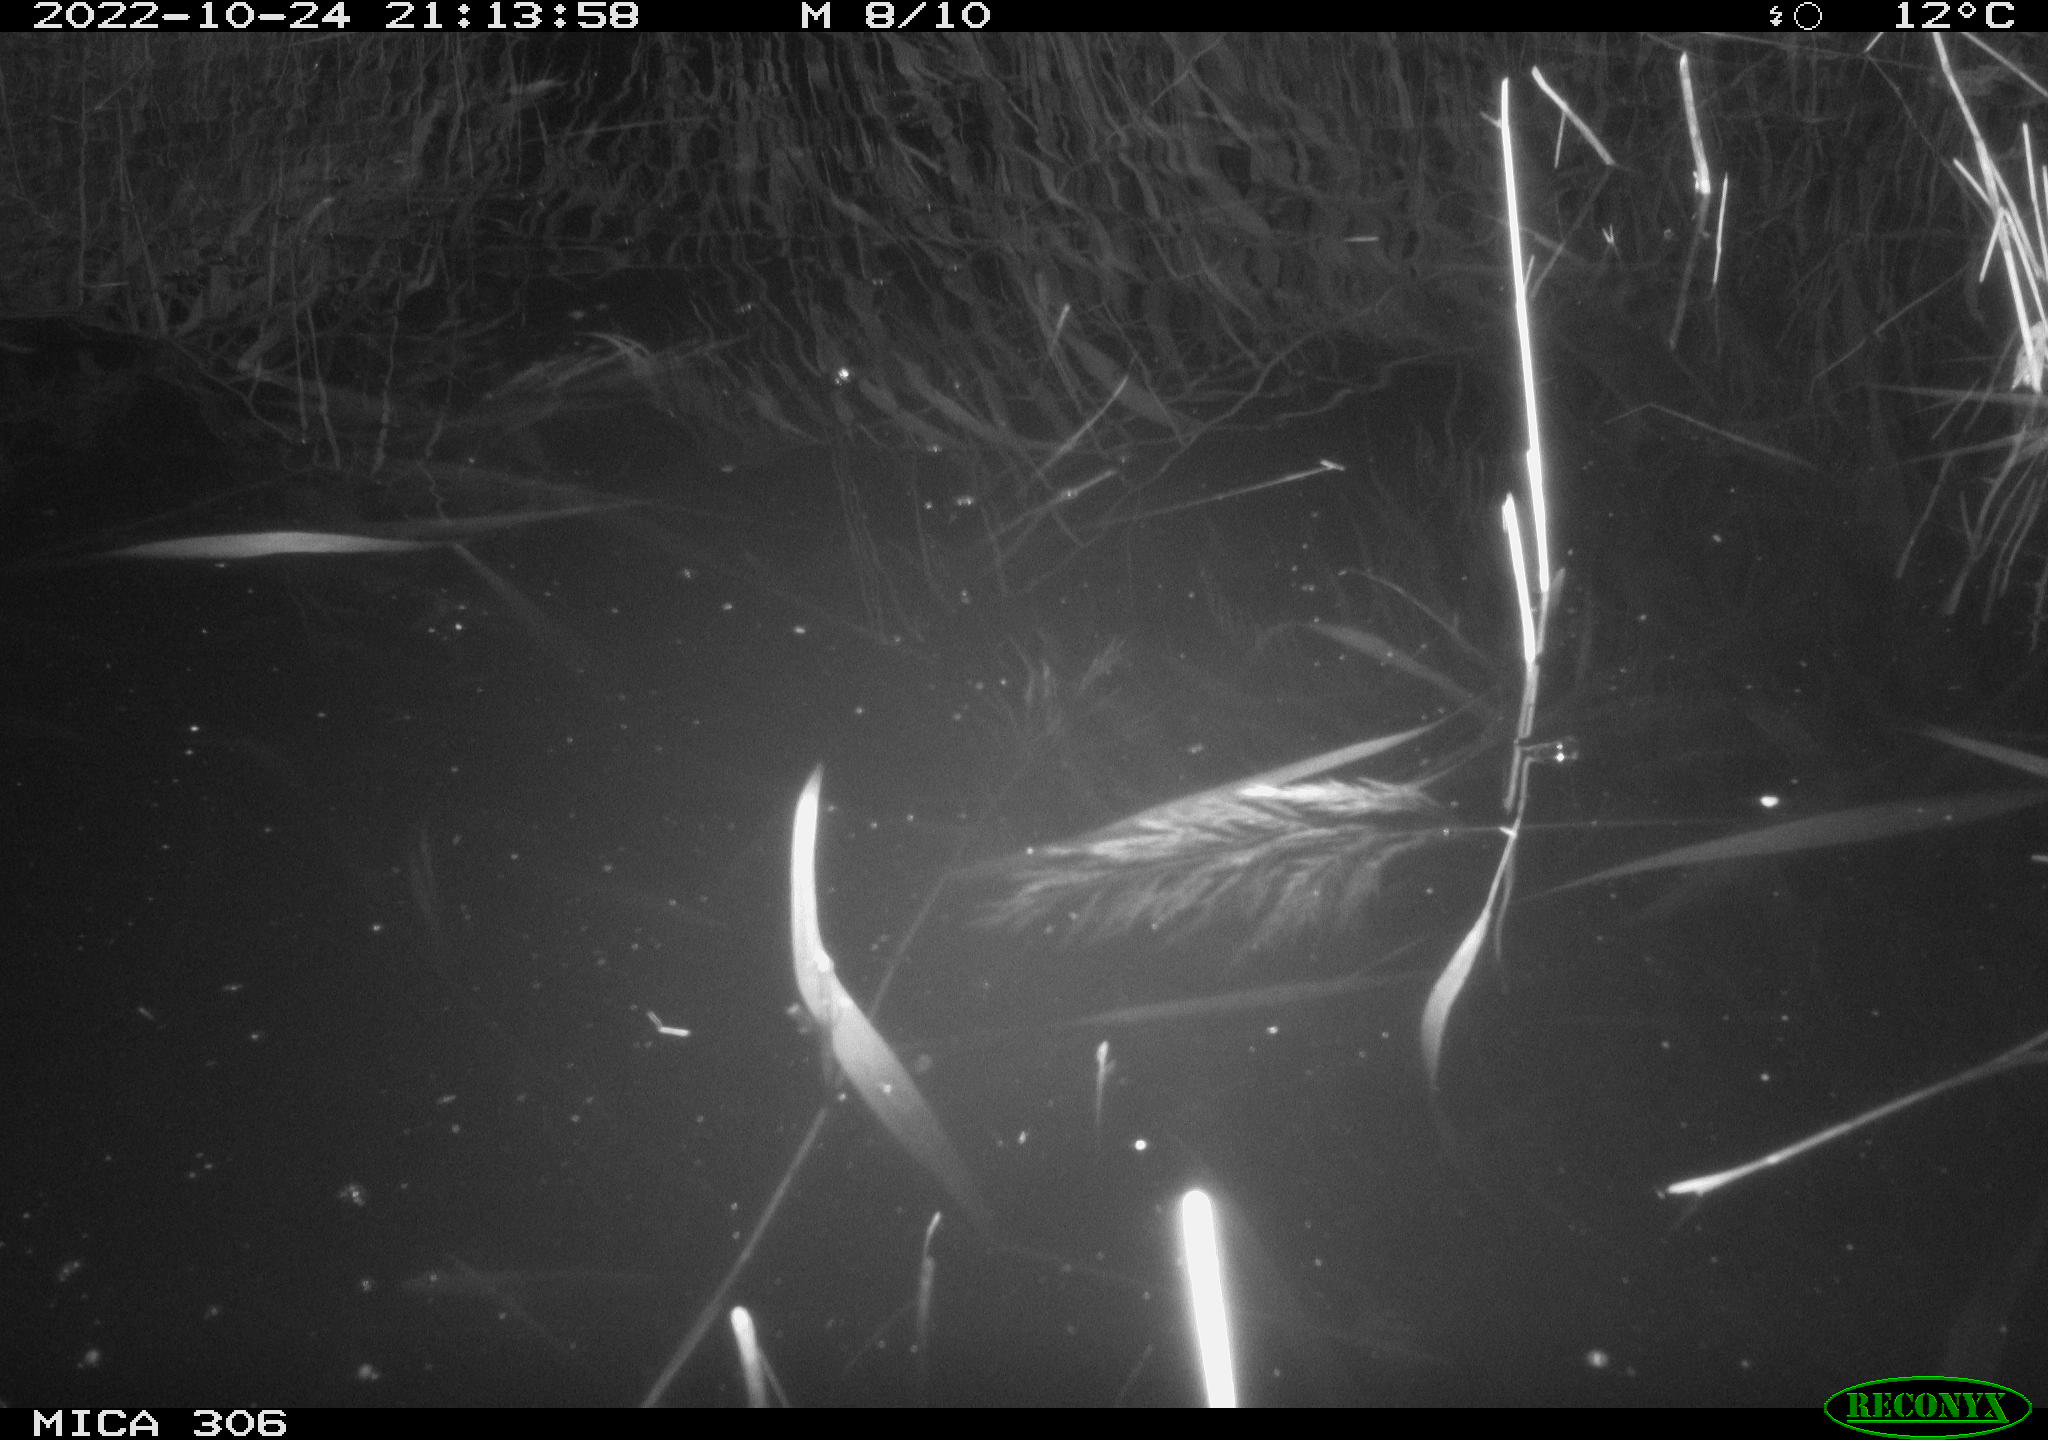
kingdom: Animalia
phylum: Chordata
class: Mammalia
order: Rodentia
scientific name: Rodentia
